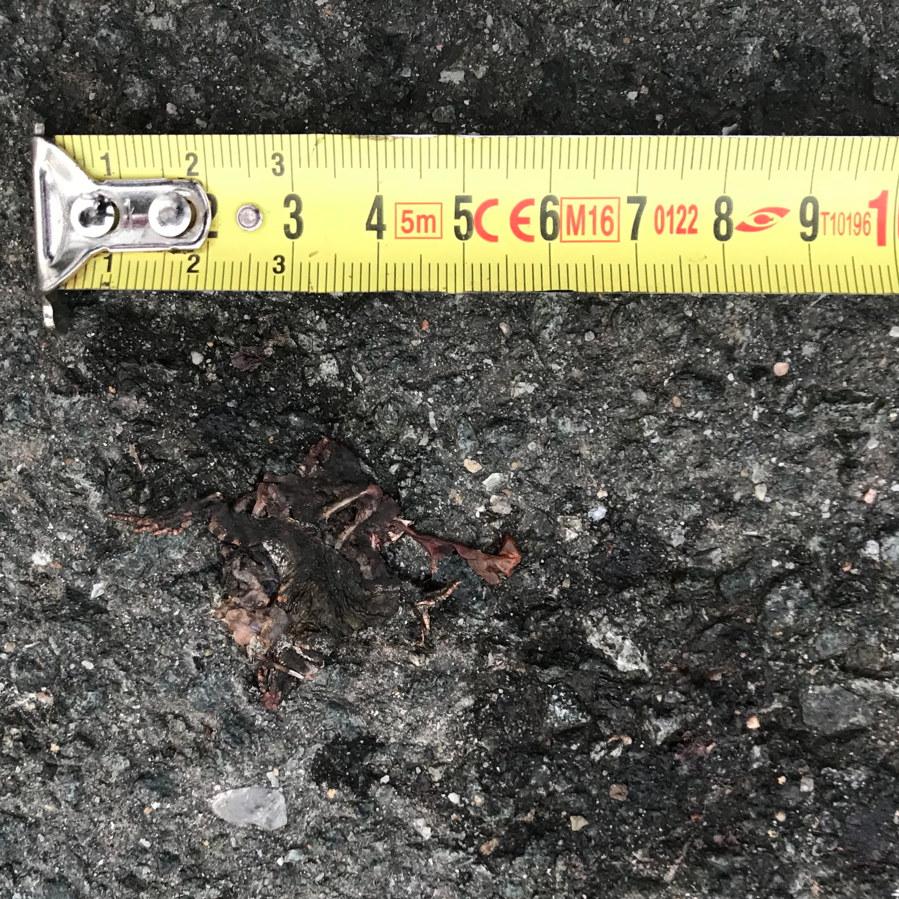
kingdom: Animalia
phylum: Chordata
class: Amphibia
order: Anura
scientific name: Anura
